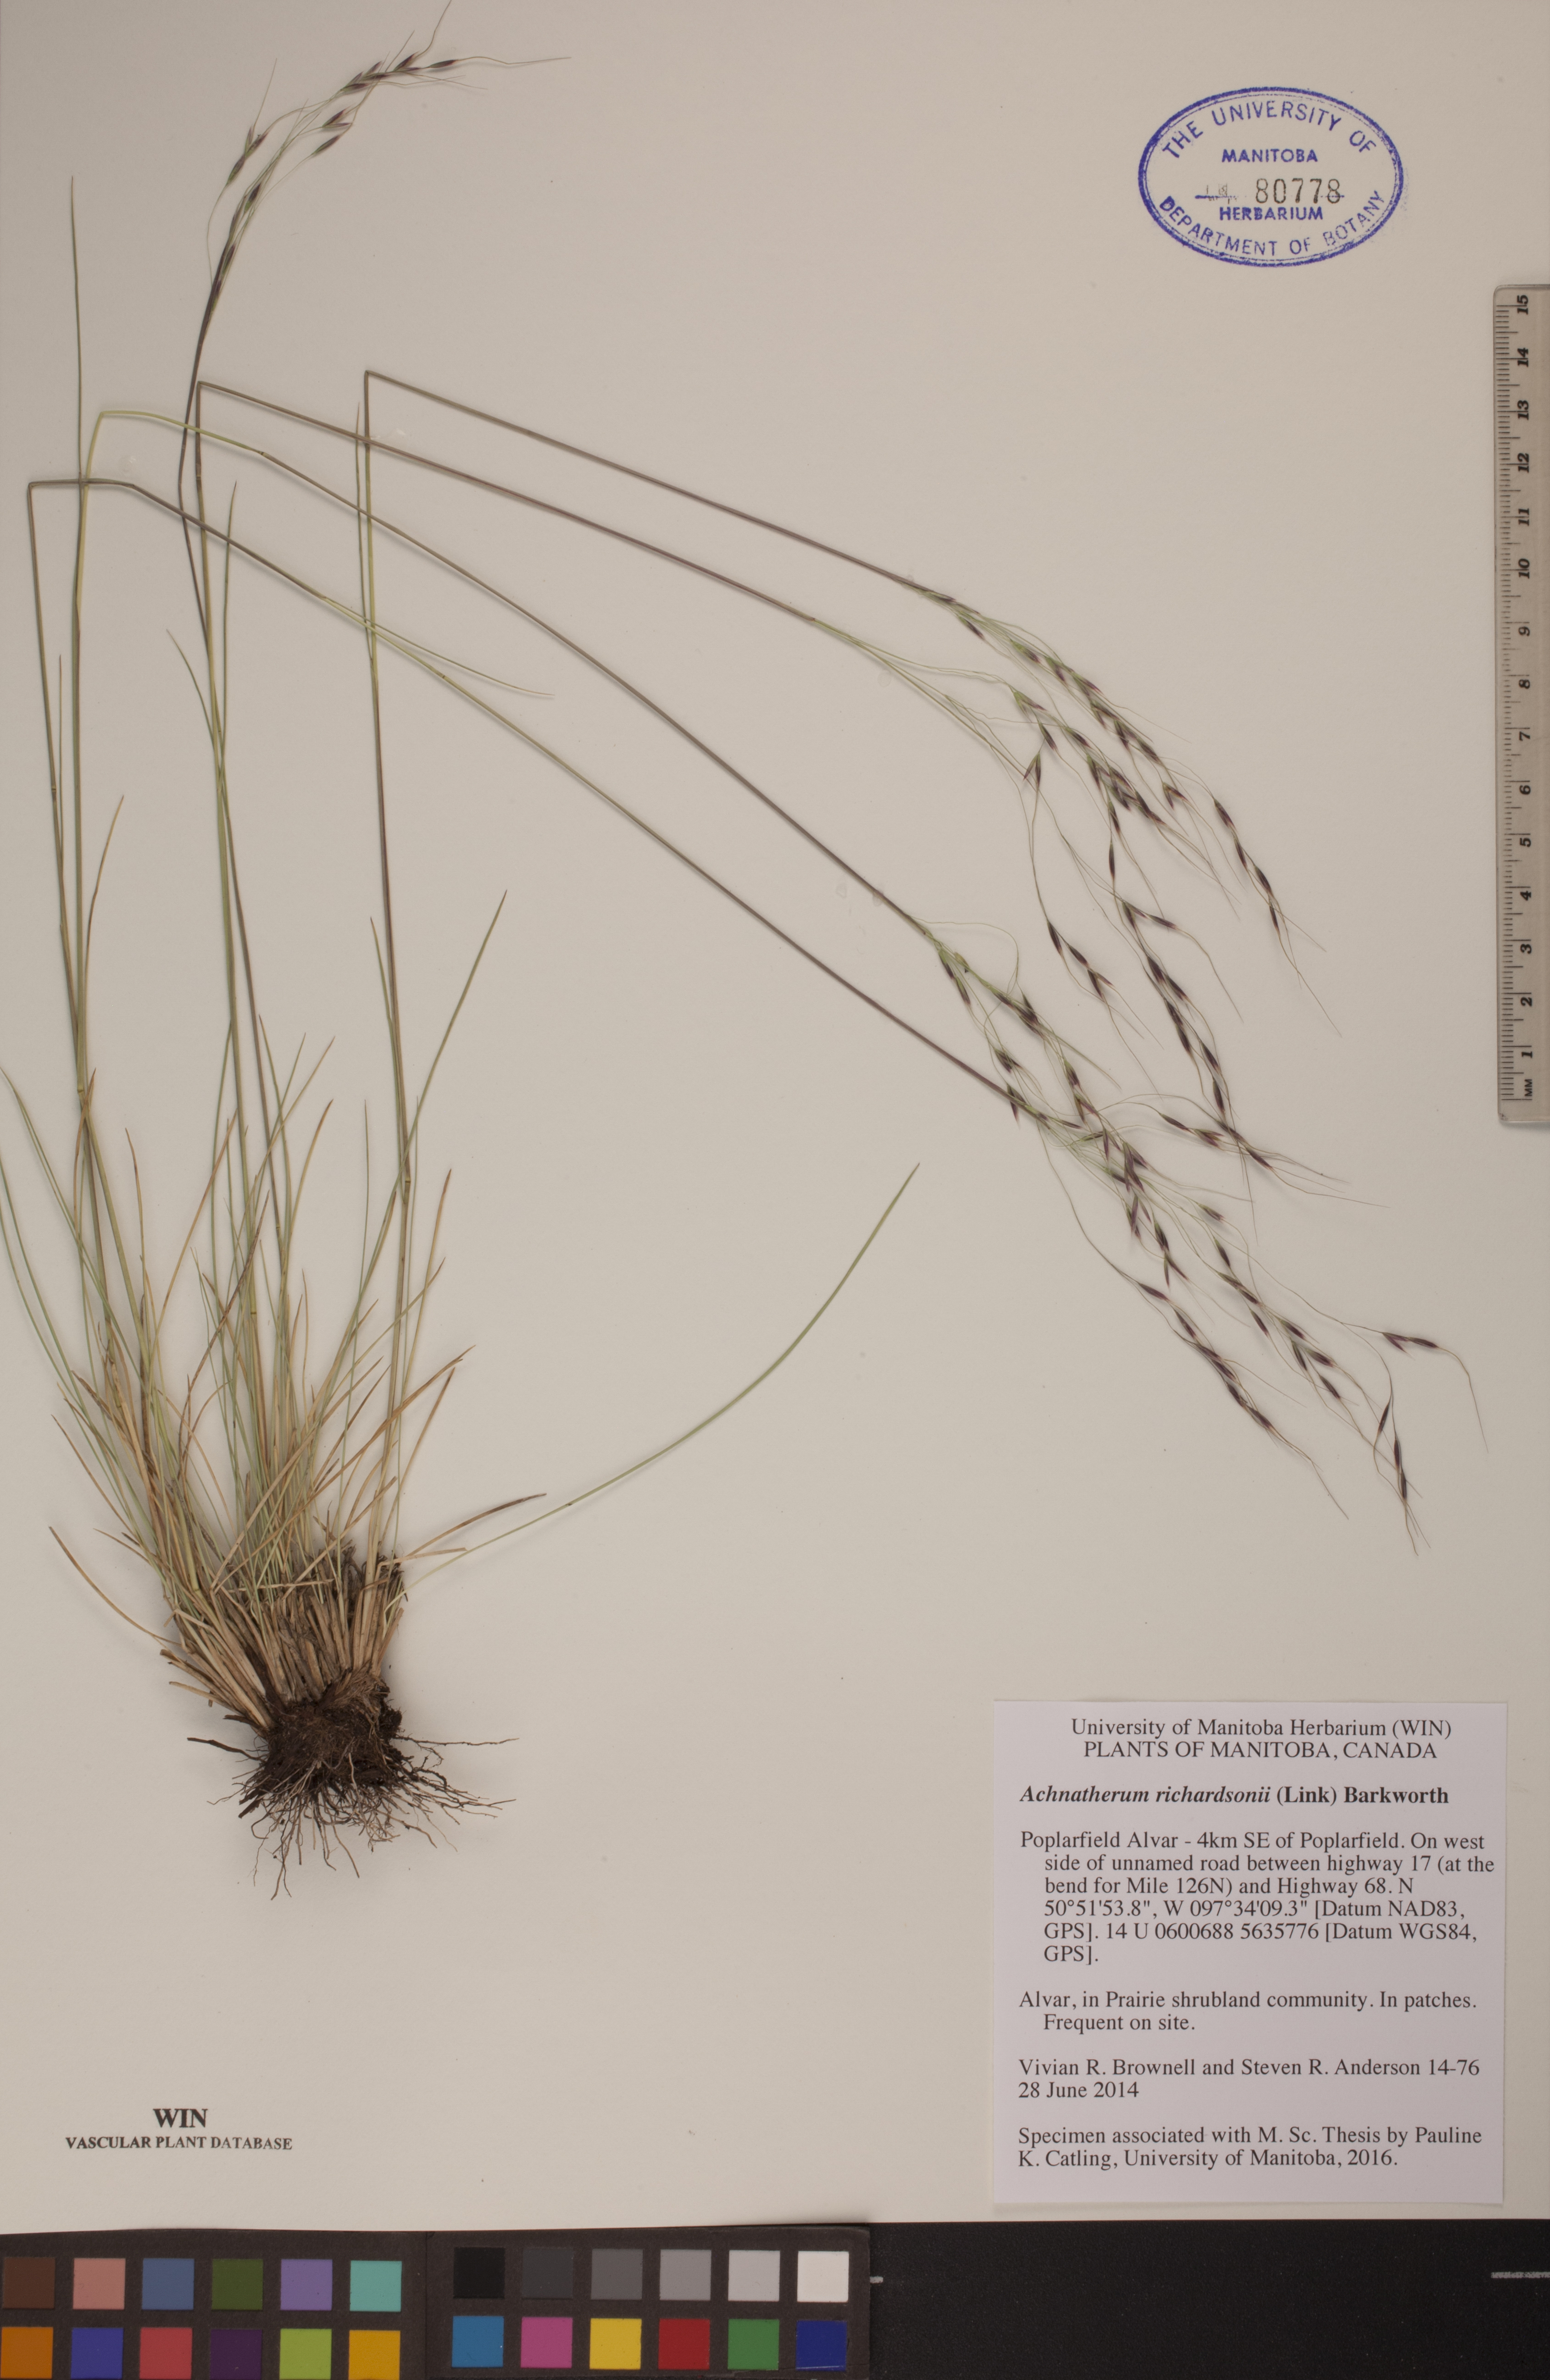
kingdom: Plantae
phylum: Tracheophyta
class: Liliopsida
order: Poales
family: Poaceae
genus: Eriocoma
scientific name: Eriocoma richardsonii
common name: Richardson's needlegrass
